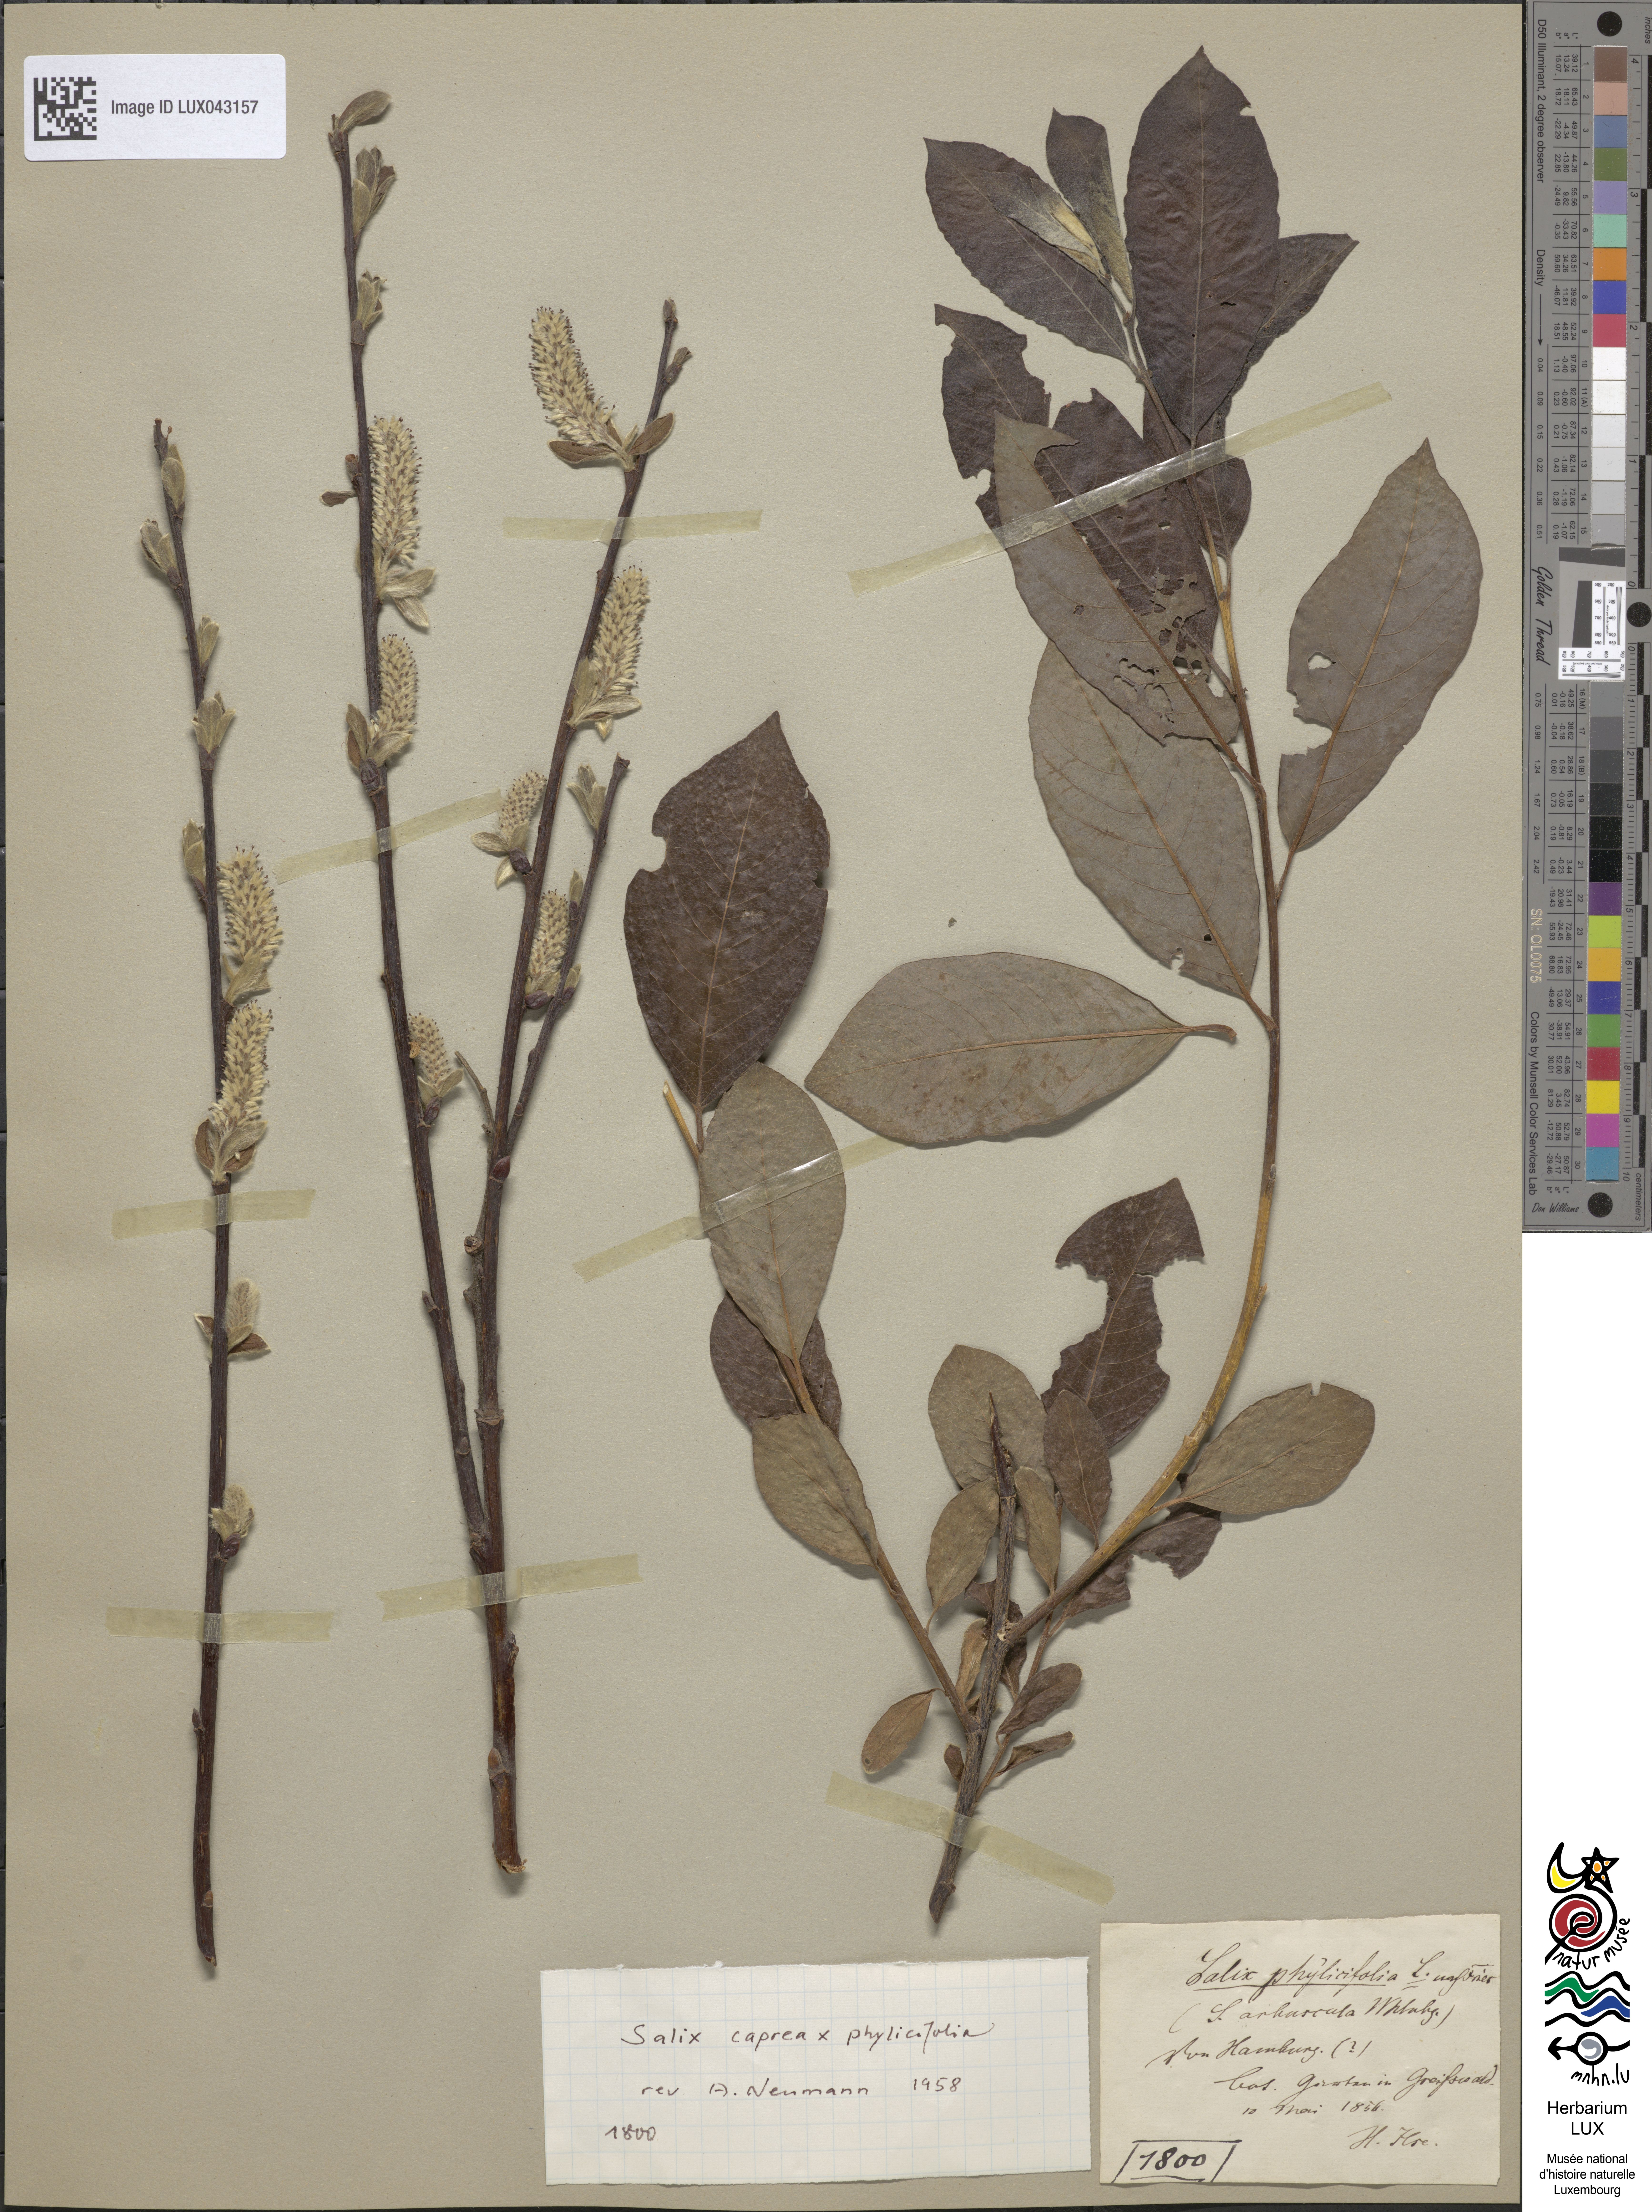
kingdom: Plantae
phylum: Tracheophyta
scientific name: Tracheophyta
